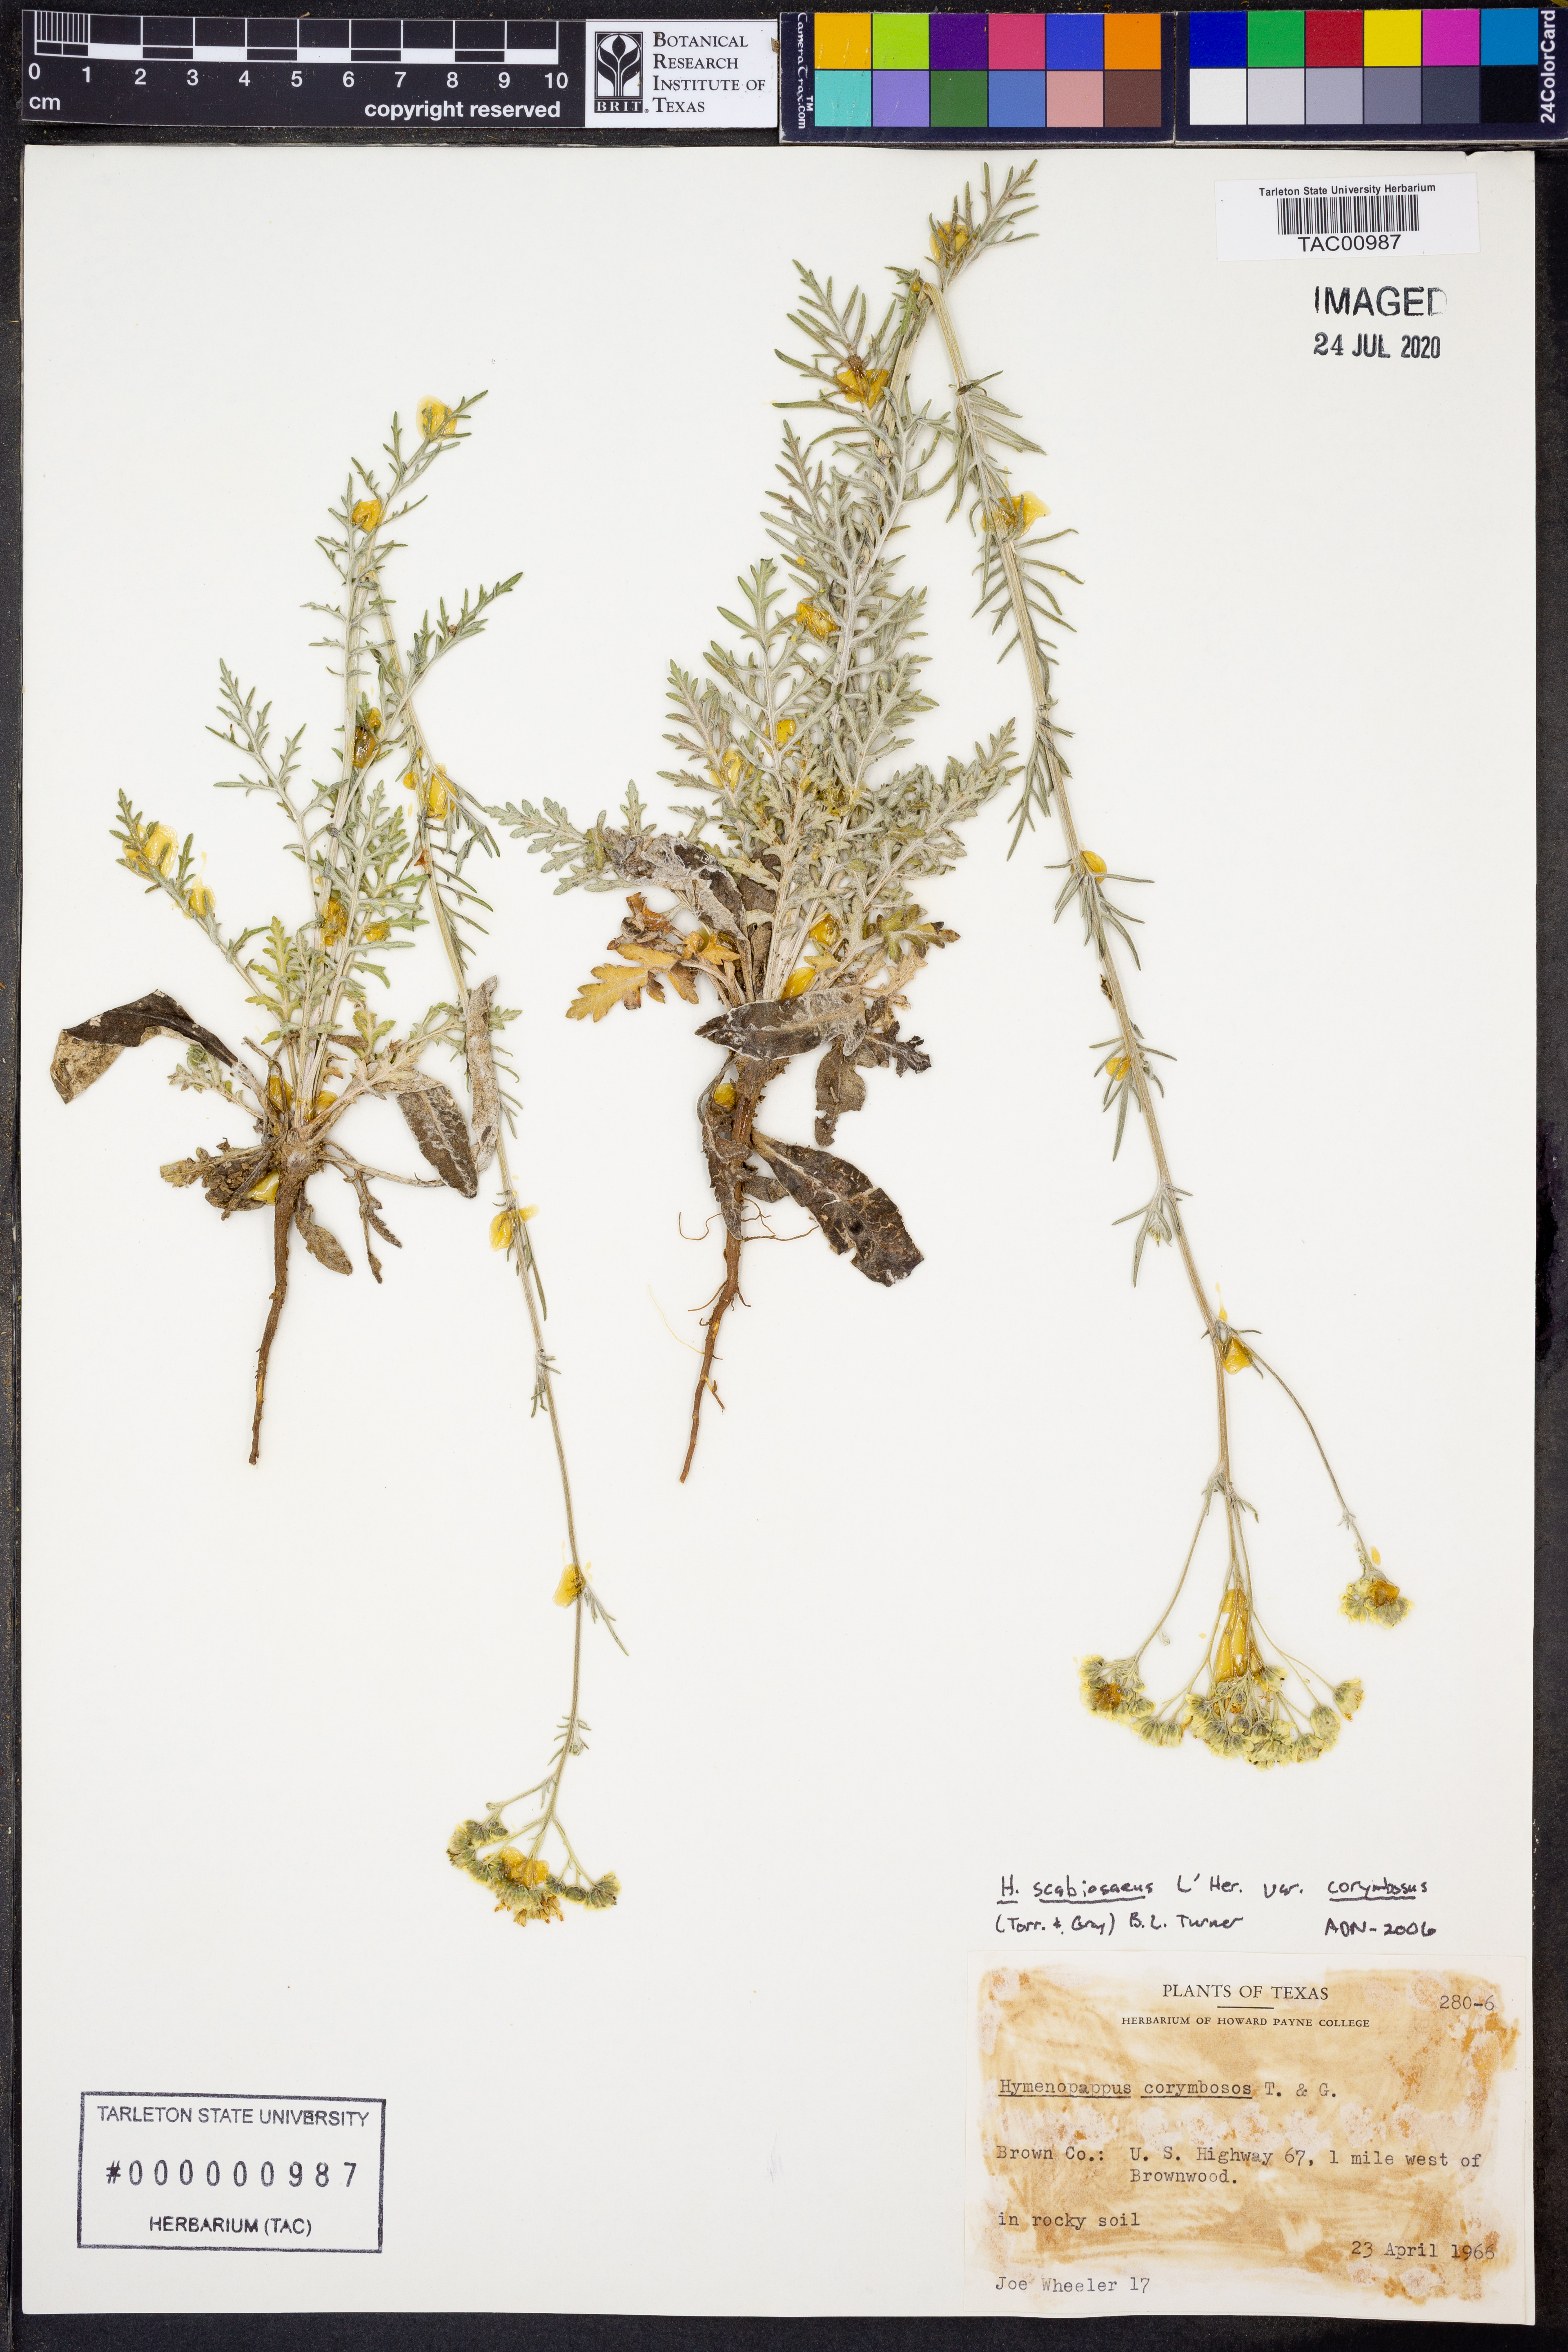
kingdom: Plantae
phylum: Tracheophyta
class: Magnoliopsida
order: Asterales
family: Asteraceae
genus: Hymenopappus
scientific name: Hymenopappus scabiosaeus
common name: Carolina woollywhite
